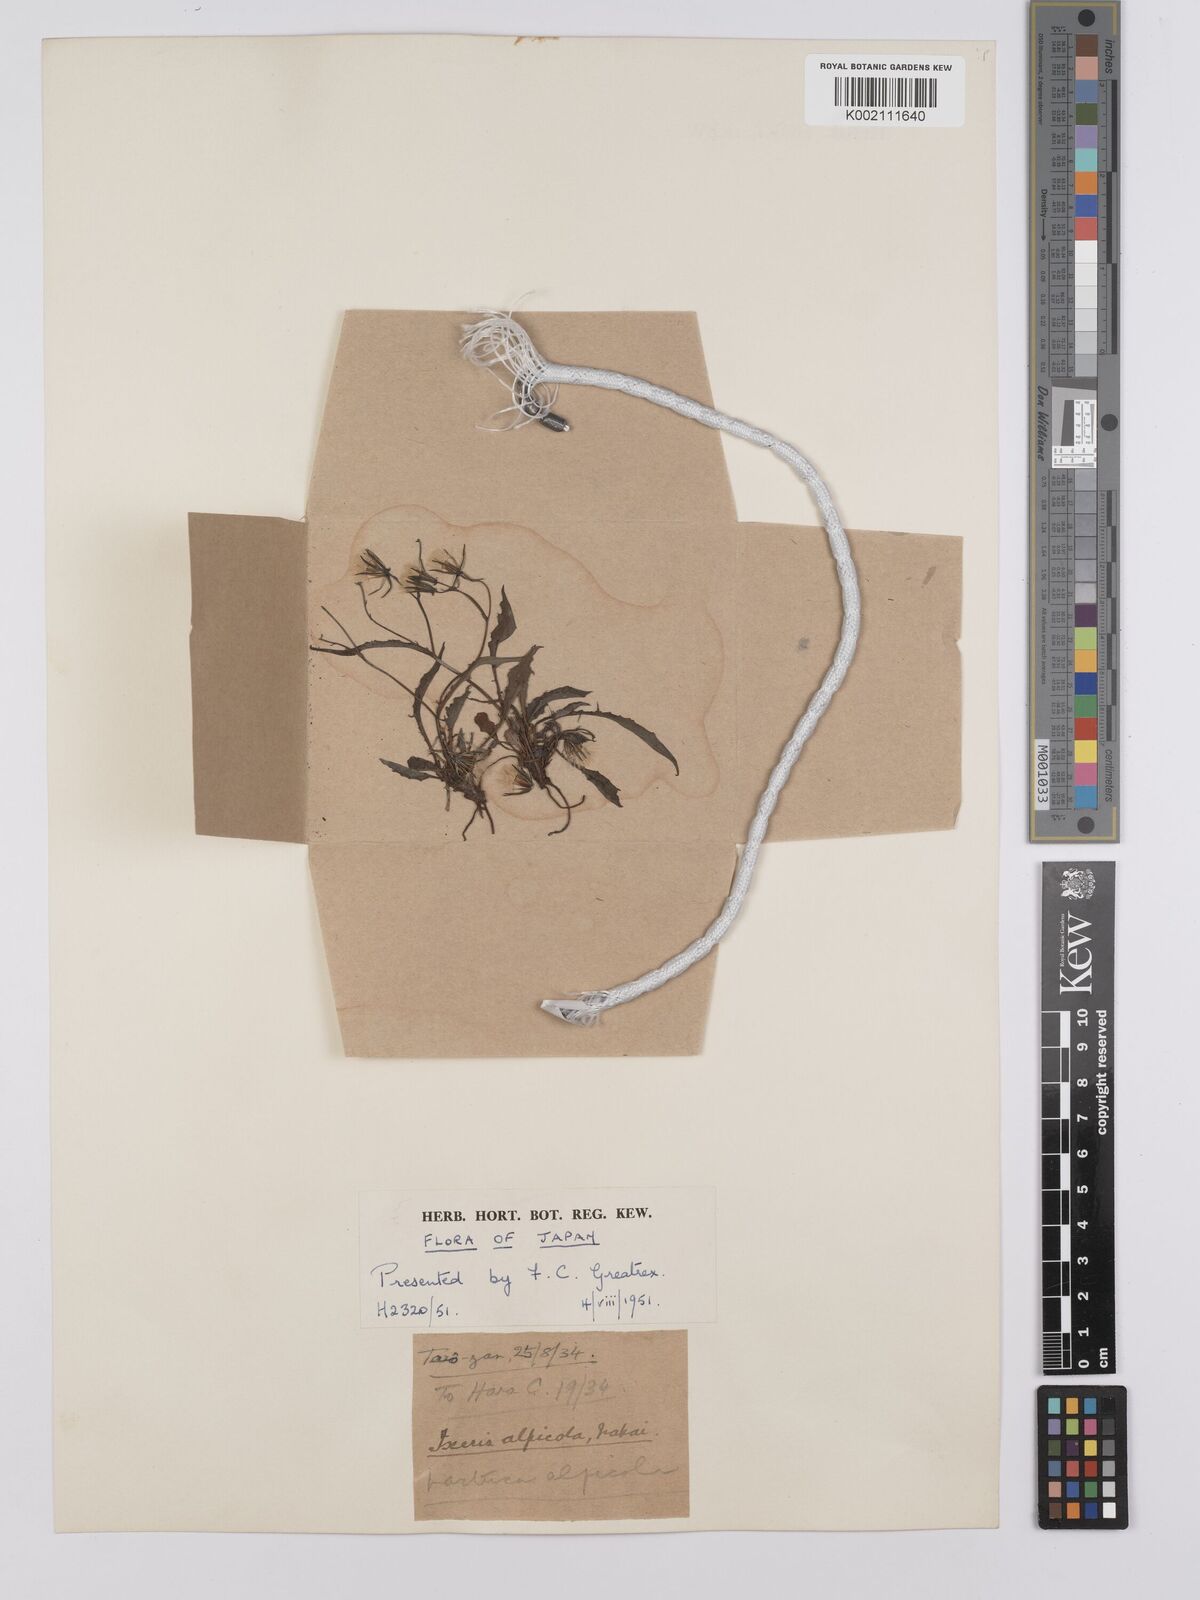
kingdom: Plantae
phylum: Tracheophyta
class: Magnoliopsida
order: Asterales
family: Asteraceae
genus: Ixeridium
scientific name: Ixeridium alpicola
